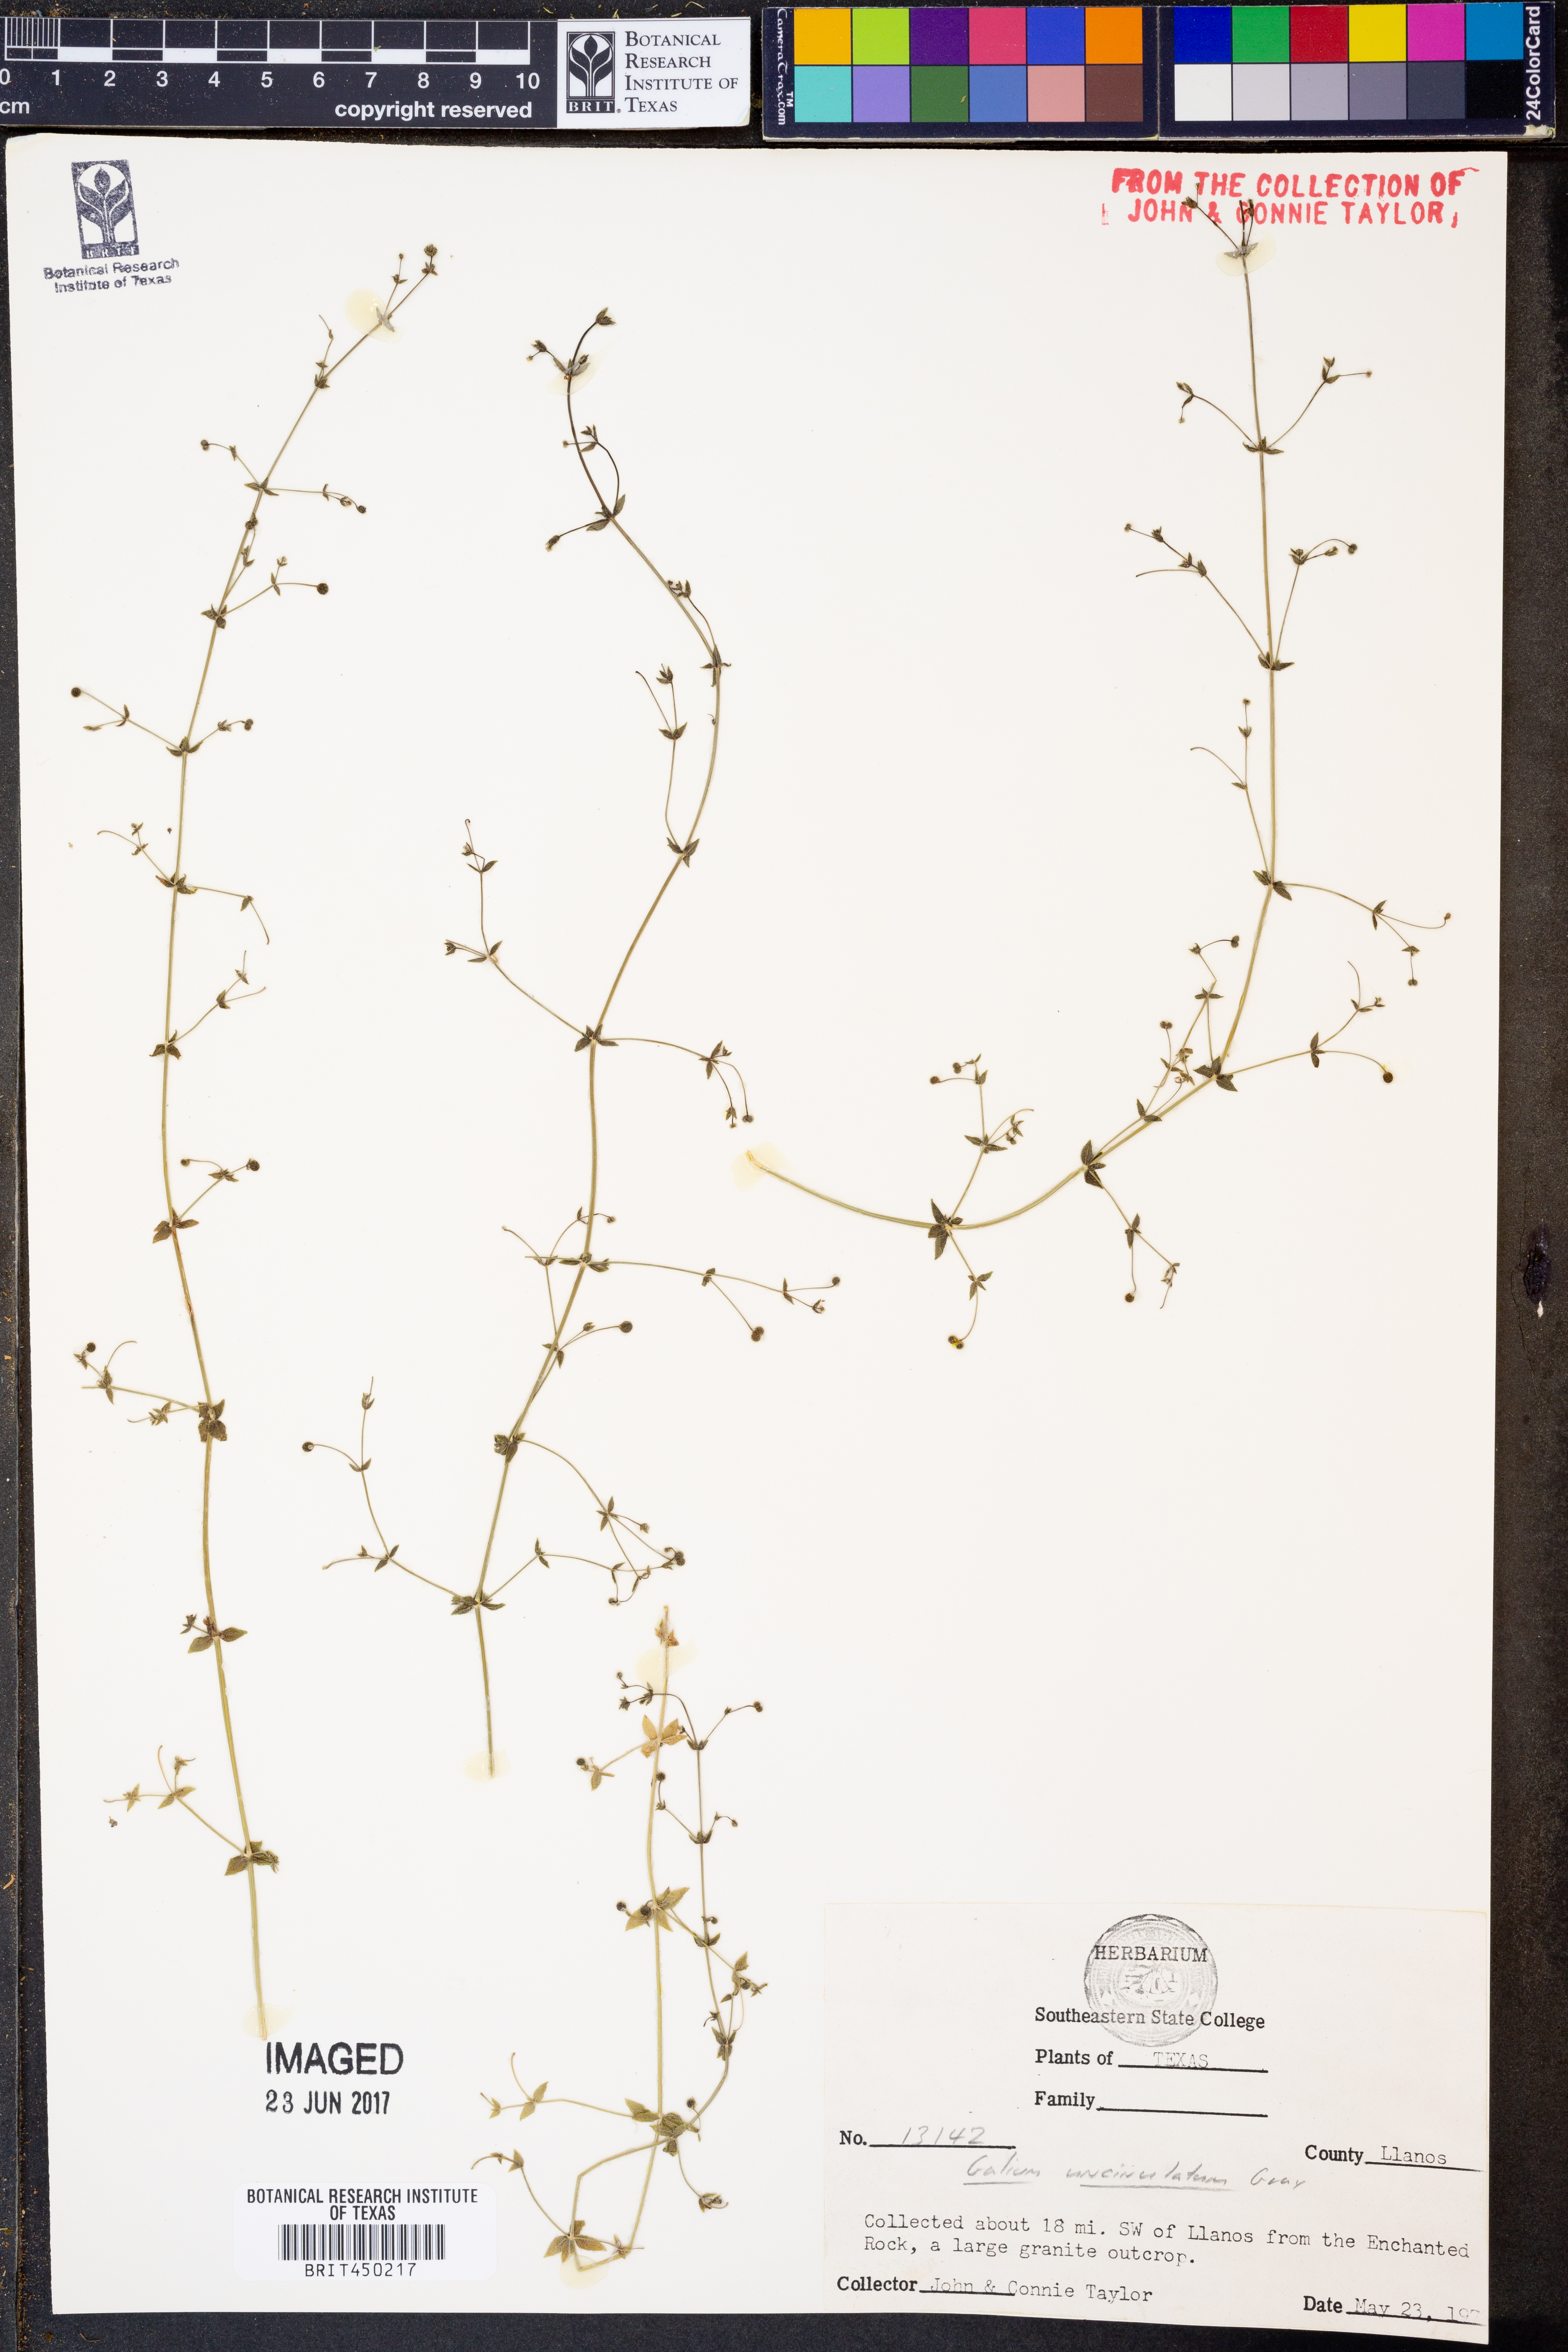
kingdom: Plantae
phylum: Tracheophyta
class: Magnoliopsida
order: Gentianales
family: Rubiaceae
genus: Galium
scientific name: Galium uncinulatum
